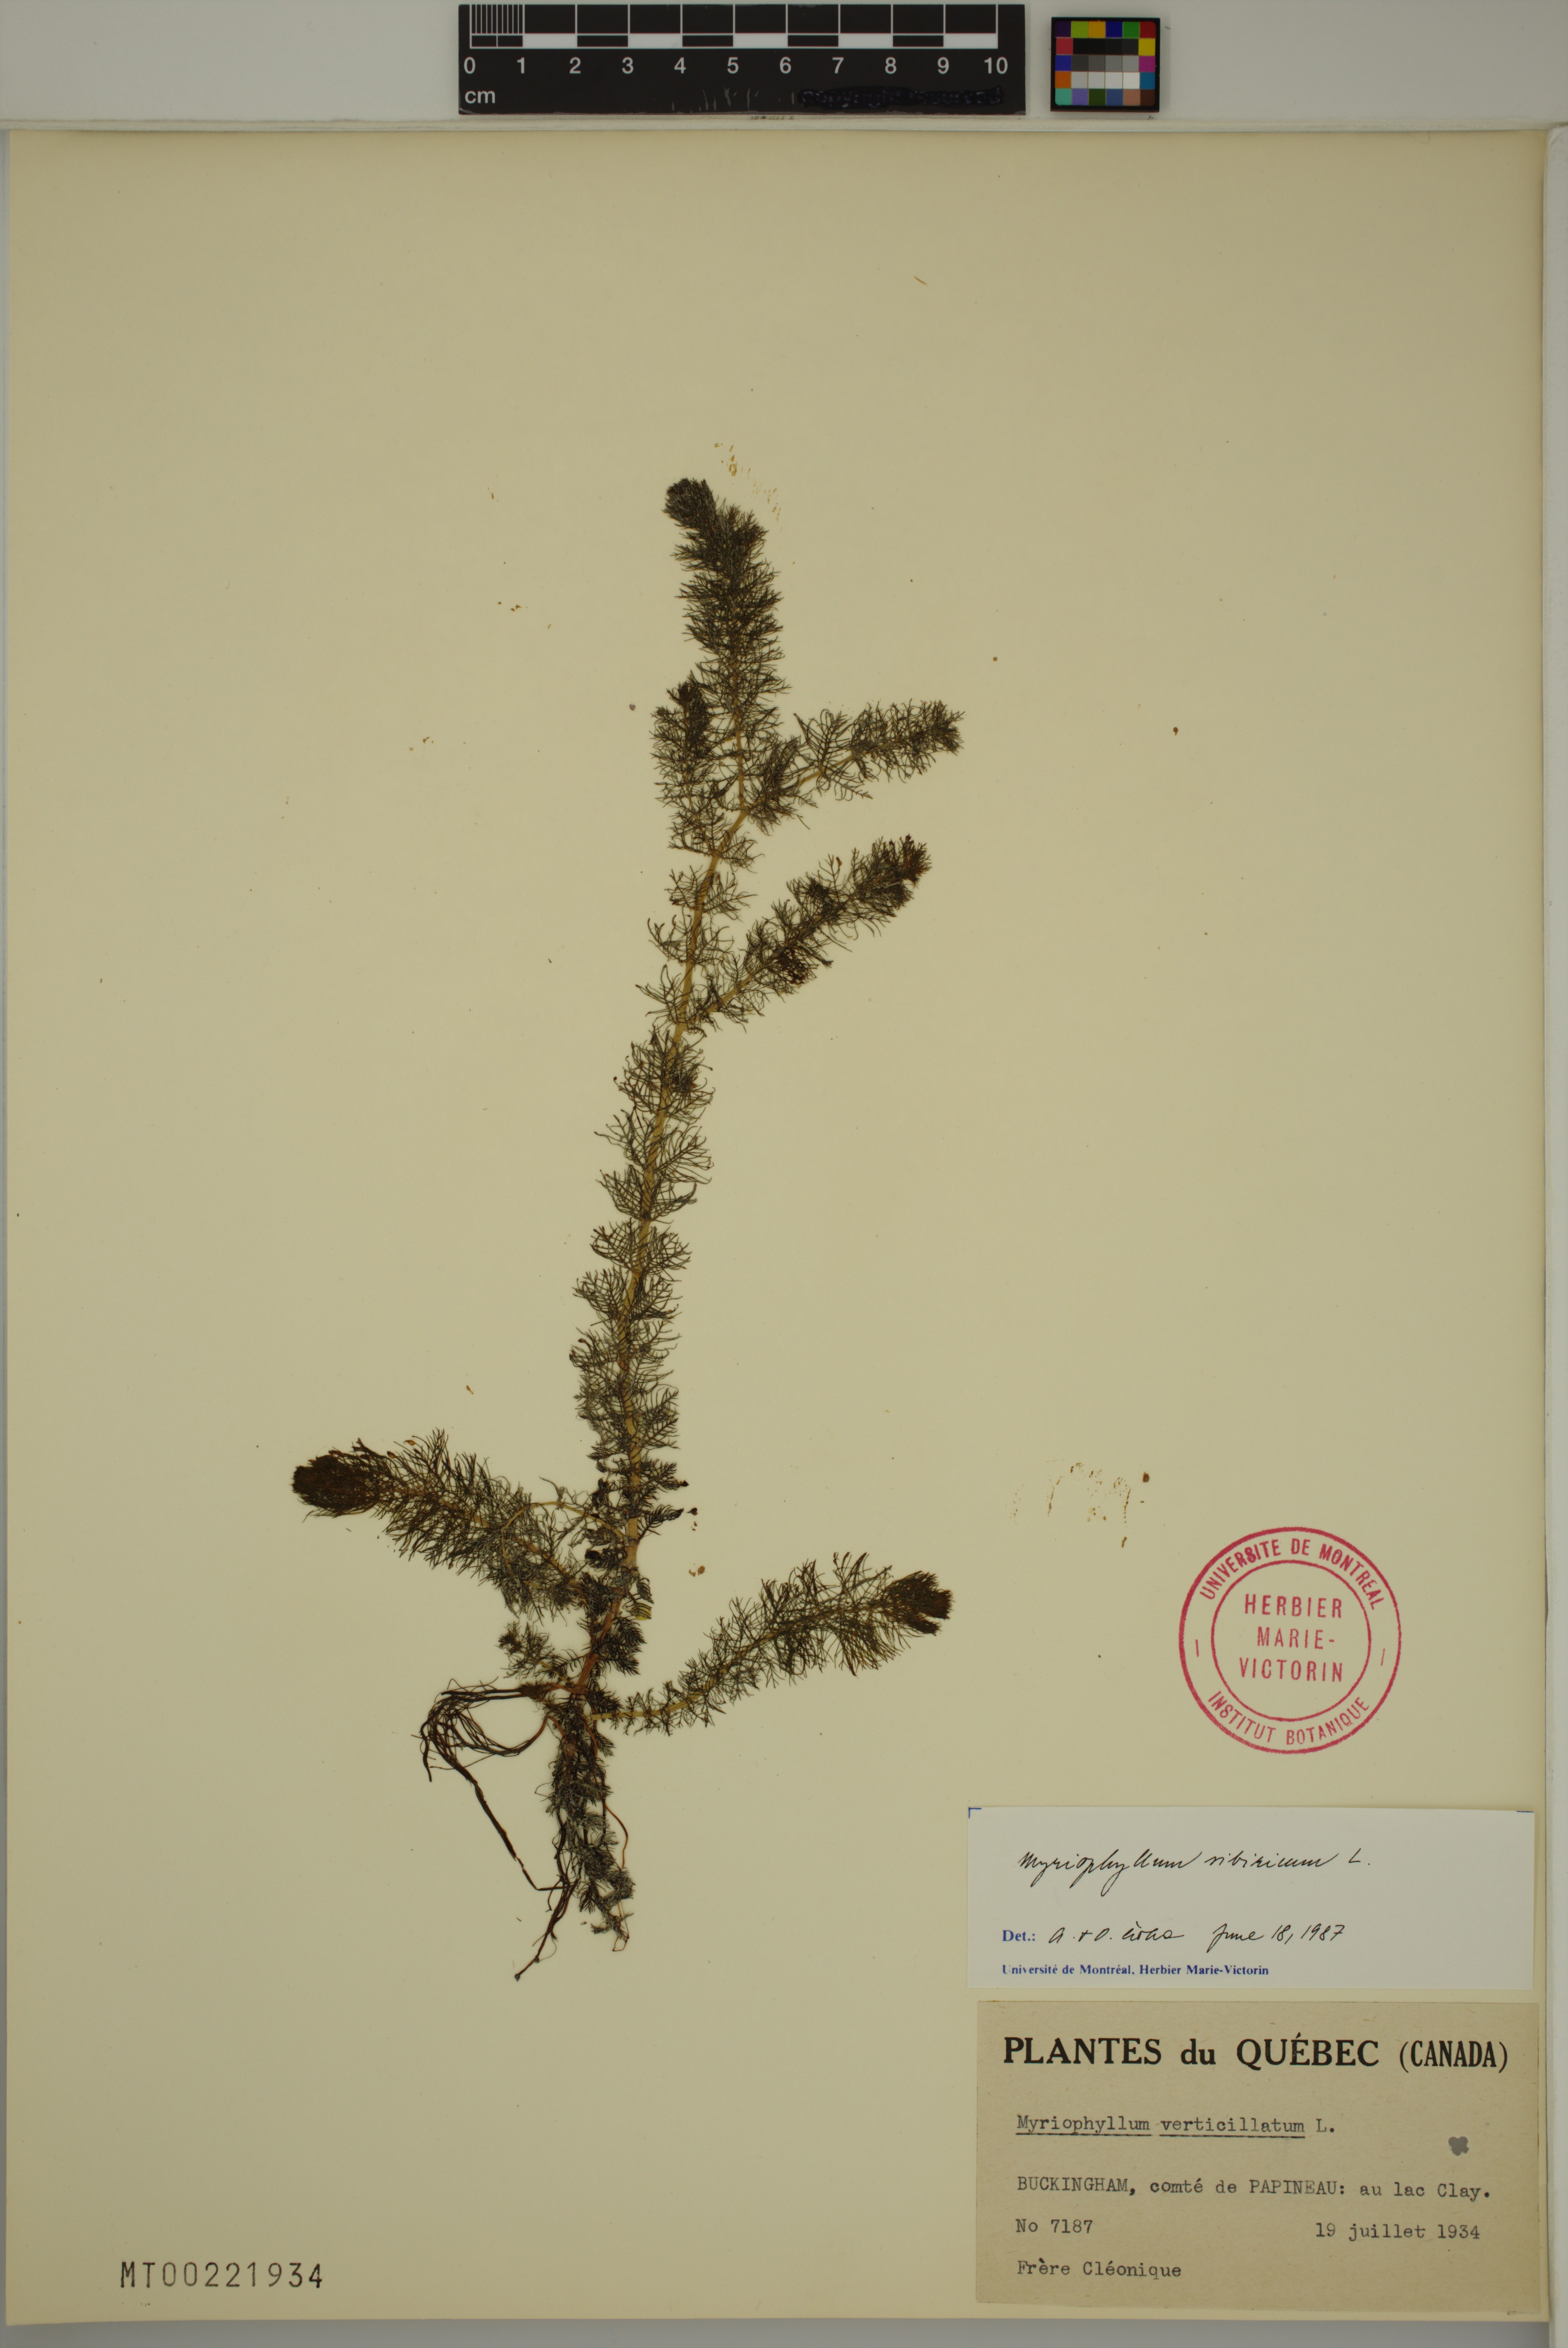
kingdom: Plantae
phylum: Tracheophyta
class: Magnoliopsida
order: Saxifragales
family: Haloragaceae
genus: Myriophyllum
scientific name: Myriophyllum sibiricum
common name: Siberian water-milfoil
